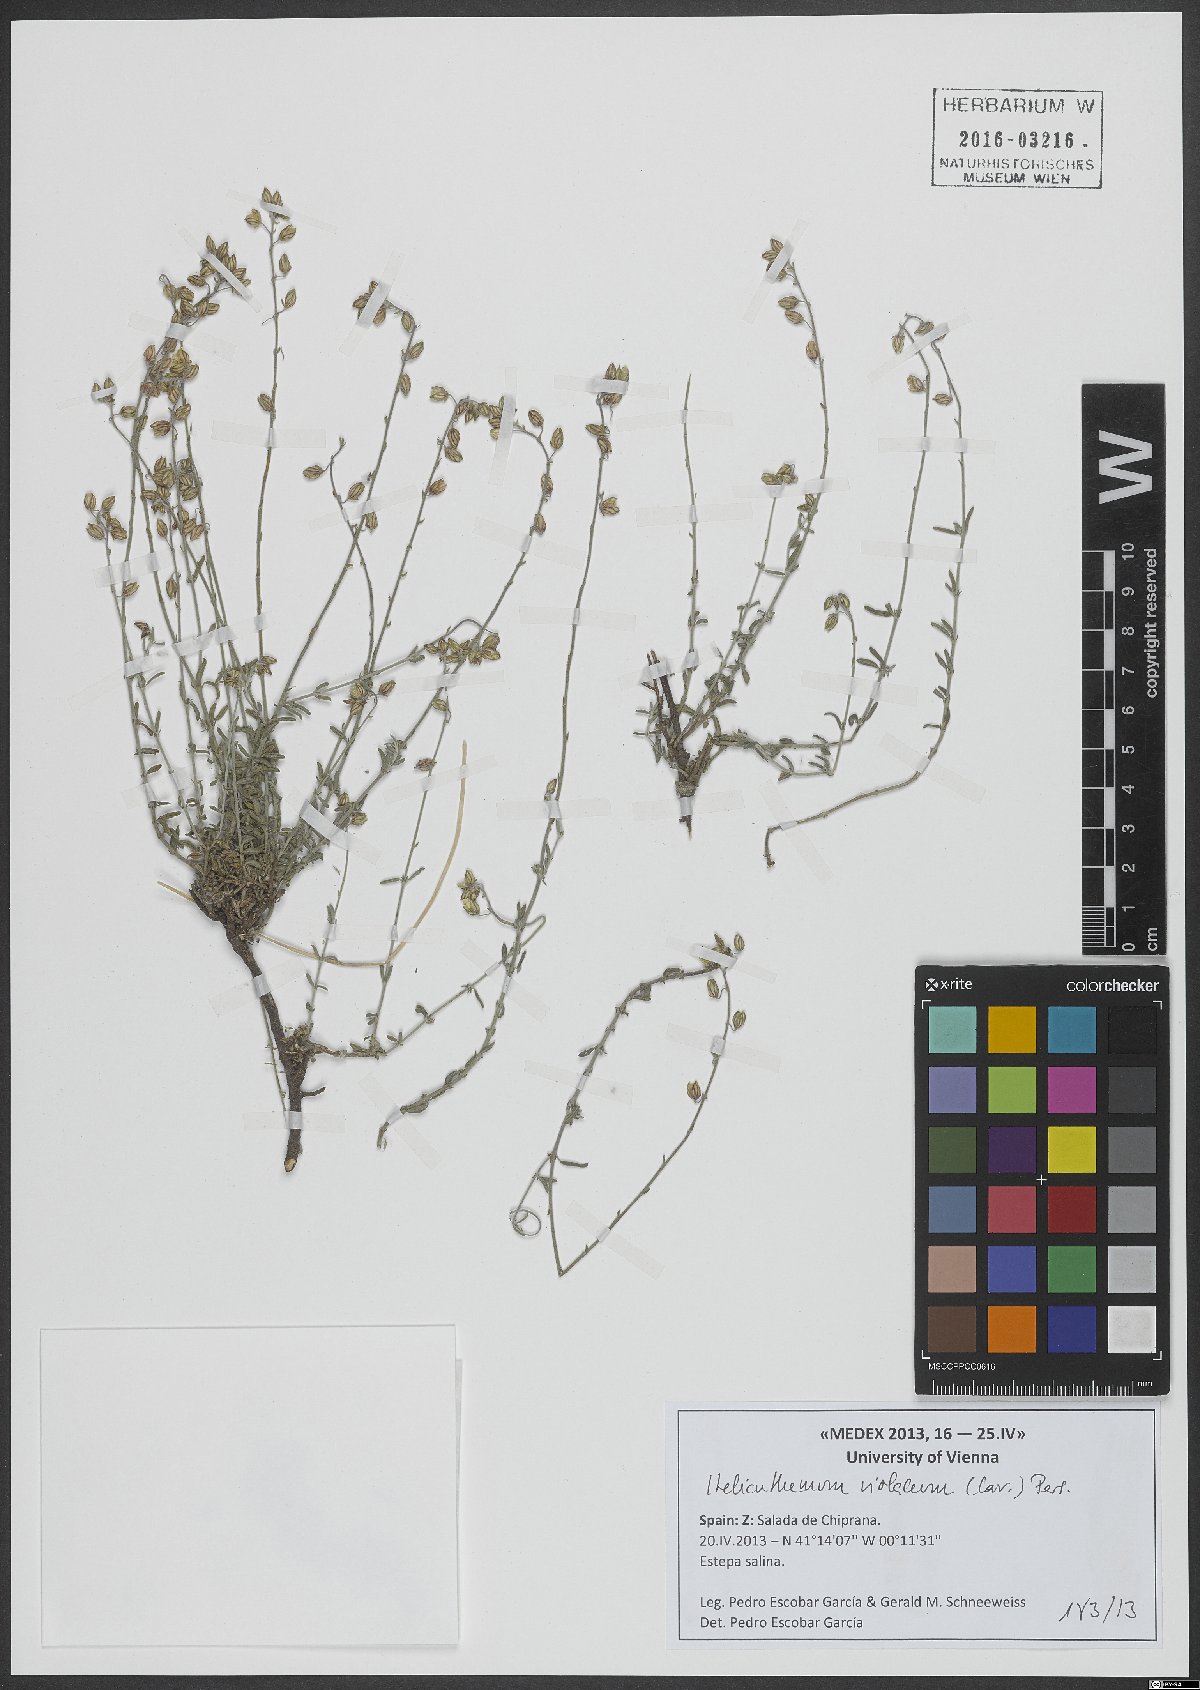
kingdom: Plantae
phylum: Tracheophyta
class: Magnoliopsida
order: Malvales
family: Cistaceae
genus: Helianthemum
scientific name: Helianthemum violaceum
